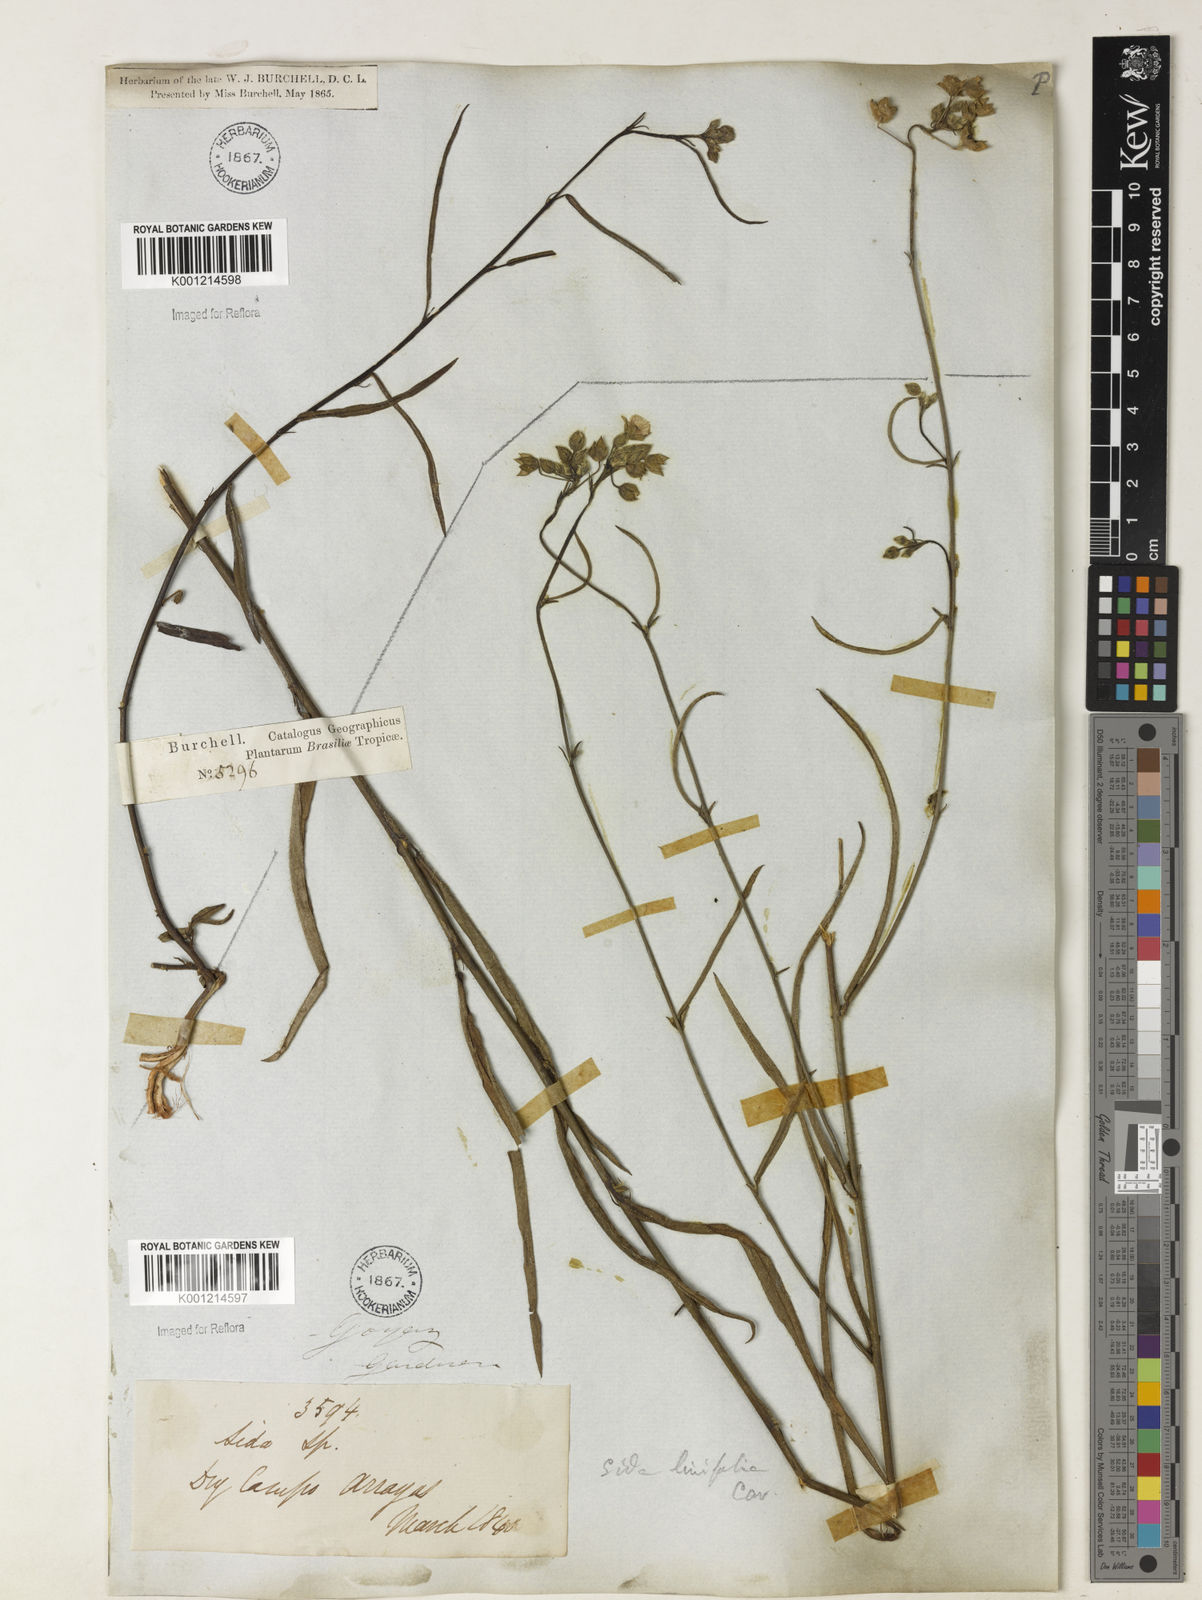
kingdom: Plantae
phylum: Tracheophyta
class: Magnoliopsida
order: Malvales
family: Malvaceae
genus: Sida
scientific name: Sida linifolia
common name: Flaxleaf fanpetals
